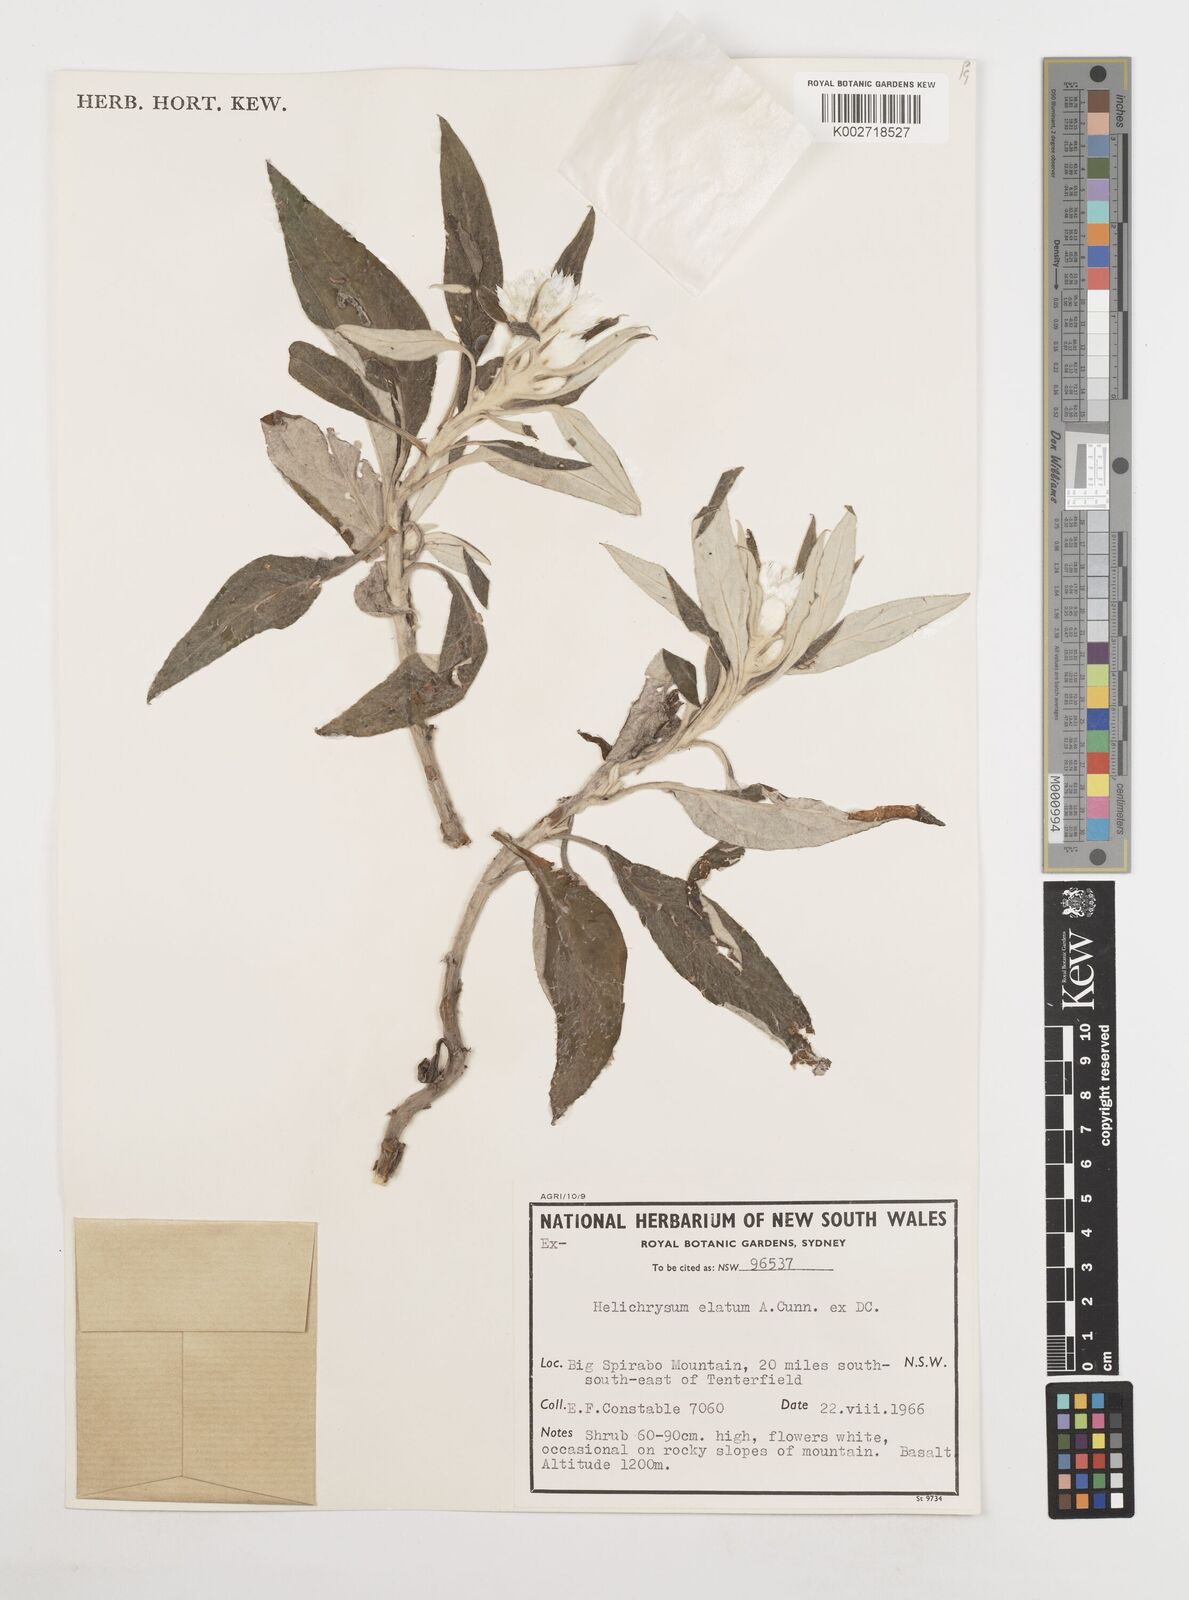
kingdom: Plantae
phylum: Tracheophyta
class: Magnoliopsida
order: Asterales
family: Asteraceae
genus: Leucozoma
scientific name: Leucozoma elatum
